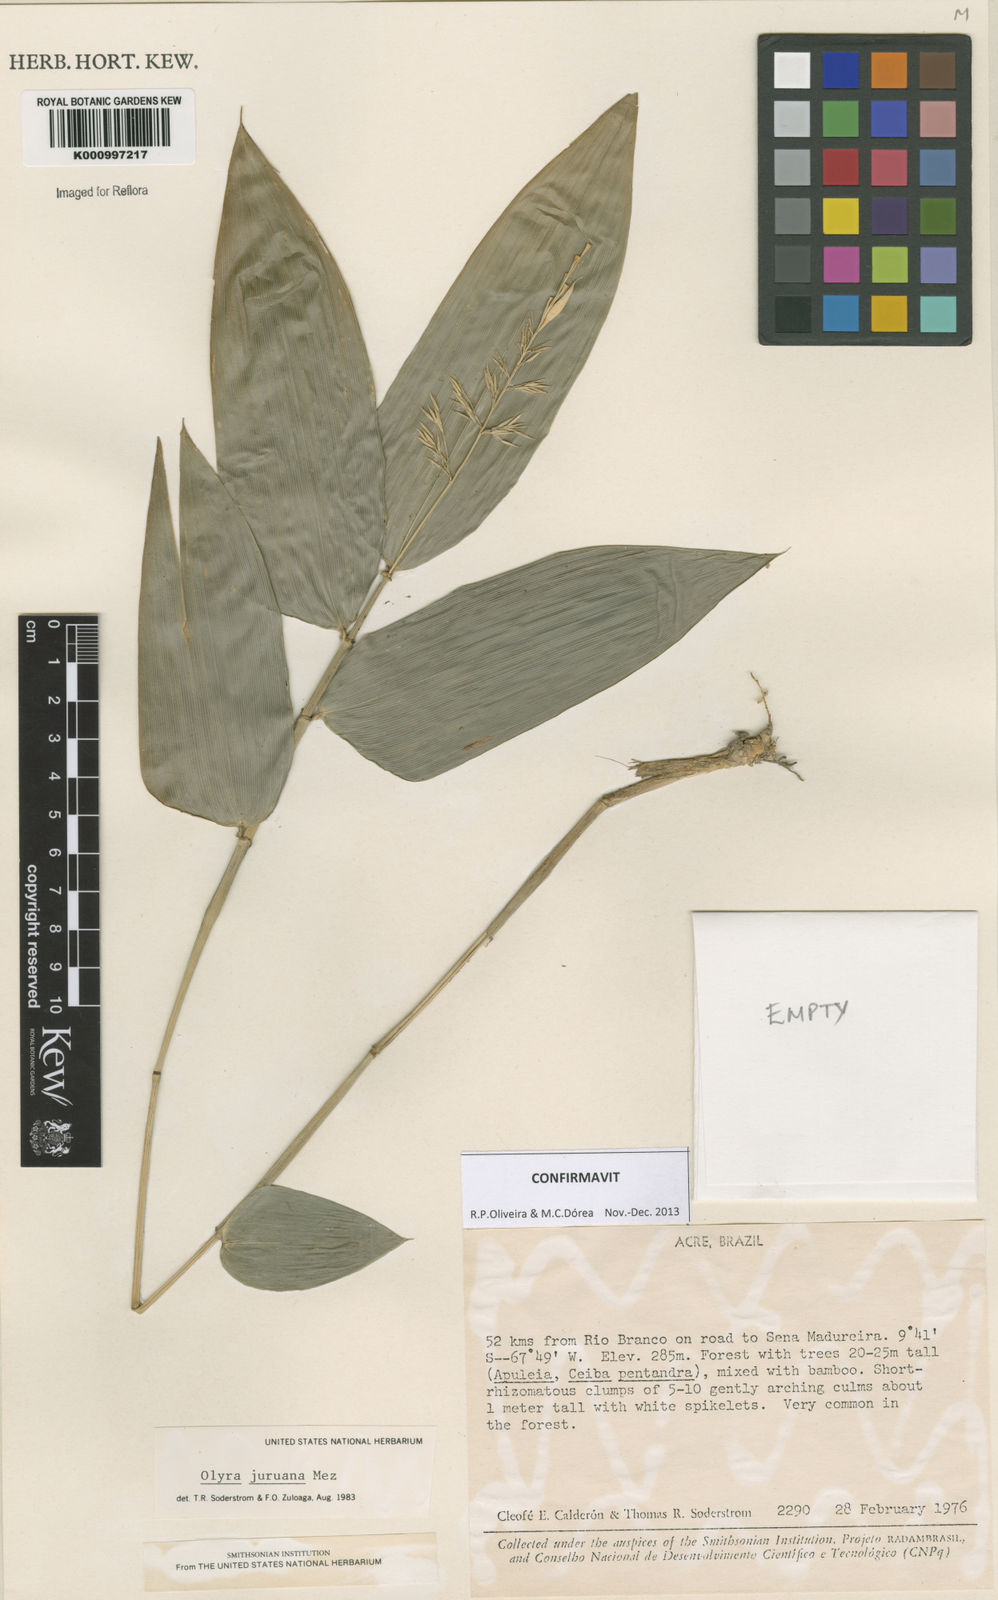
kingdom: Plantae
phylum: Tracheophyta
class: Liliopsida
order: Poales
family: Poaceae
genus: Olyra
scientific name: Olyra juruana
